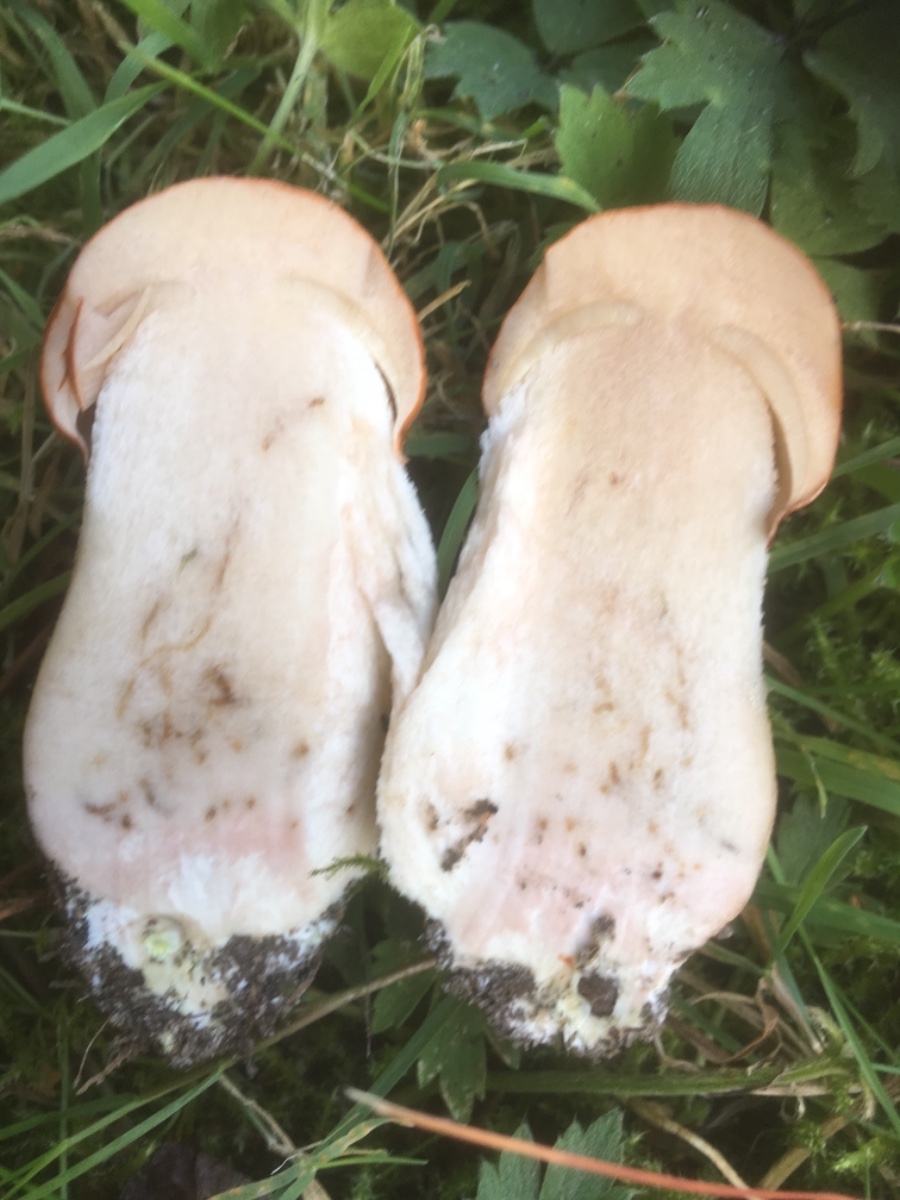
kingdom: Fungi
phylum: Basidiomycota
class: Agaricomycetes
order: Boletales
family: Boletaceae
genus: Leccinum
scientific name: Leccinum albostipitatum
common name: aspe-skælrørhat
